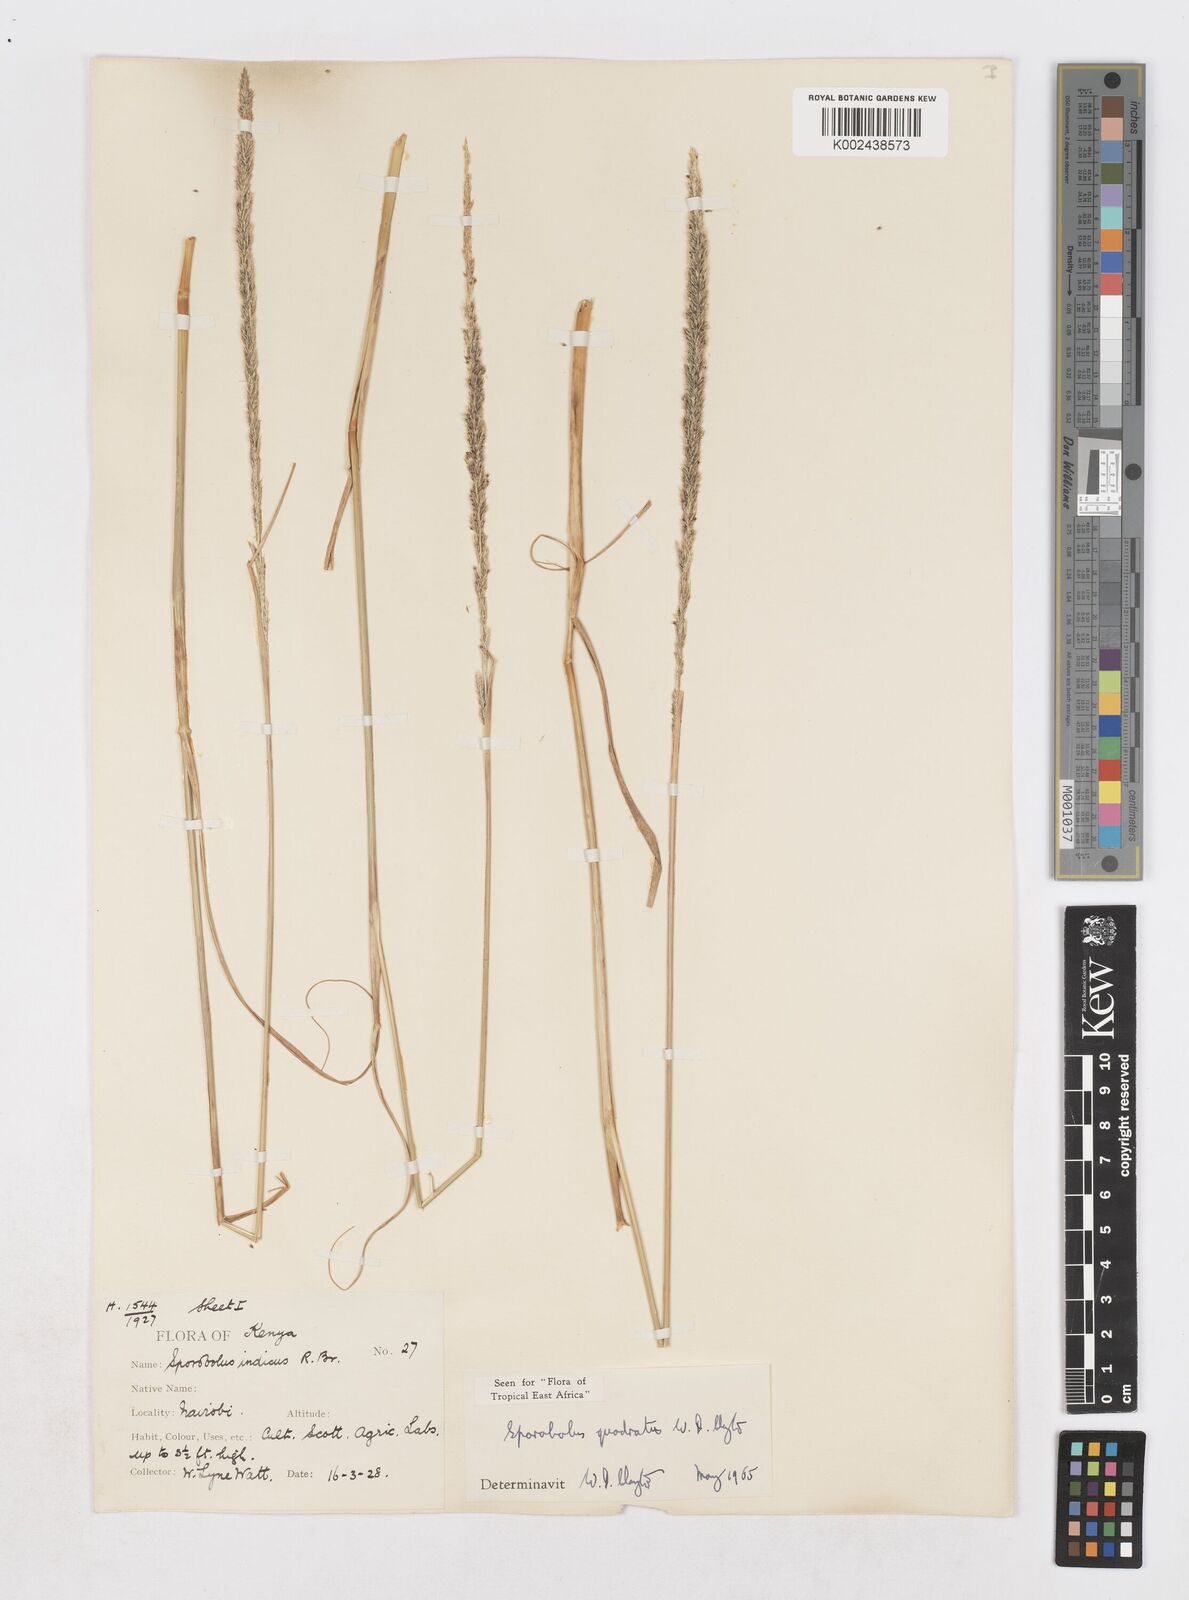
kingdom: Plantae
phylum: Tracheophyta
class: Liliopsida
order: Poales
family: Poaceae
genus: Sporobolus
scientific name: Sporobolus quadratus
